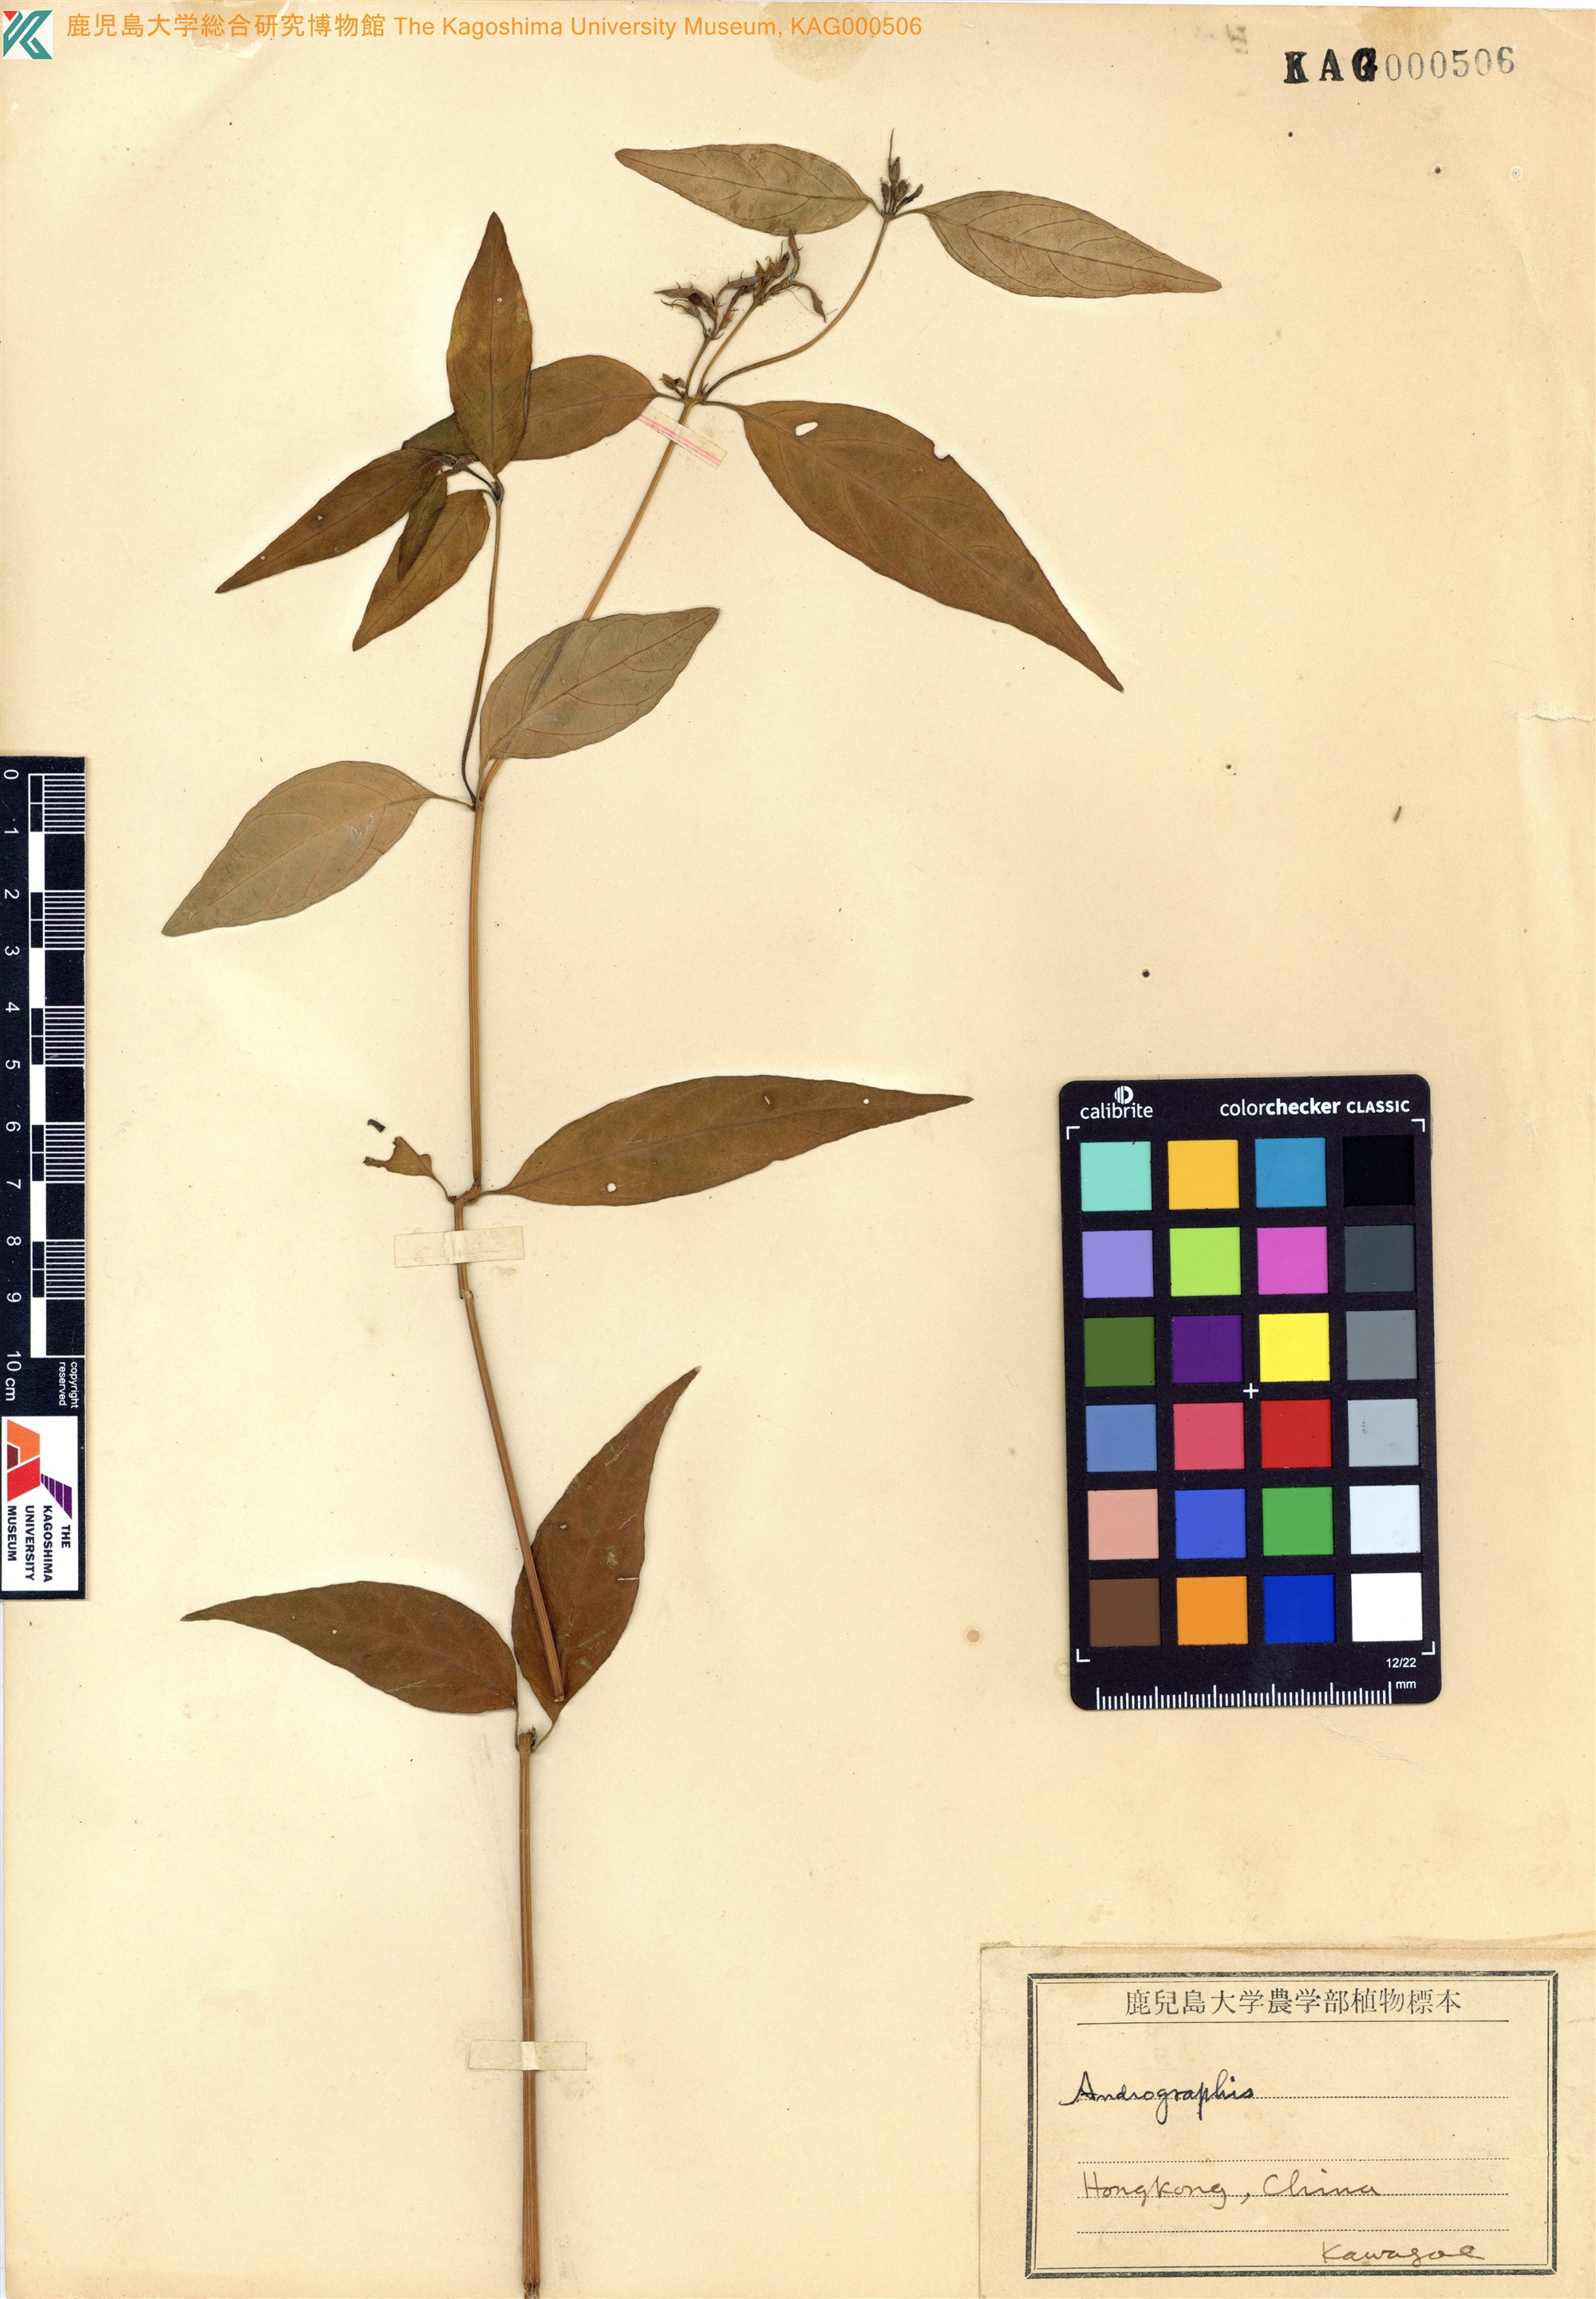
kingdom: Plantae
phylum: Tracheophyta
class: Magnoliopsida
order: Lamiales
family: Acanthaceae
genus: Andrographis
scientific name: Andrographis
